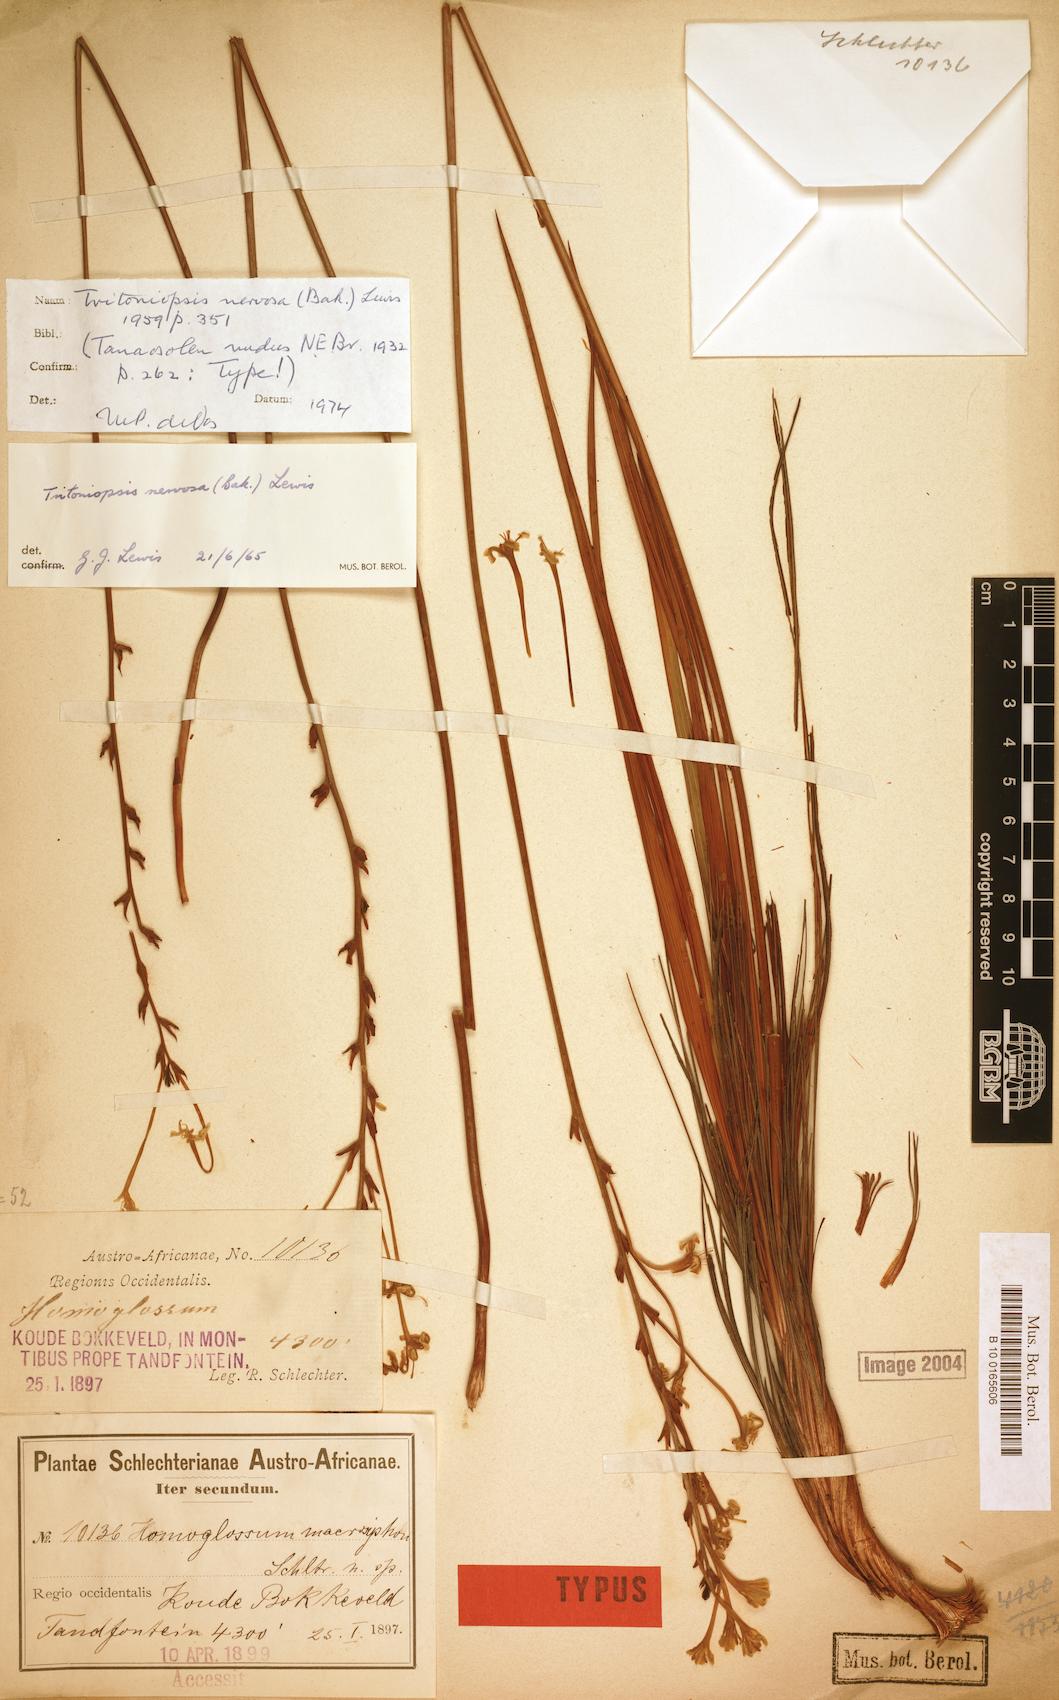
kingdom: Plantae
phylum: Tracheophyta
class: Liliopsida
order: Asparagales
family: Iridaceae
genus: Tritoniopsis
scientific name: Tritoniopsis nervosa
